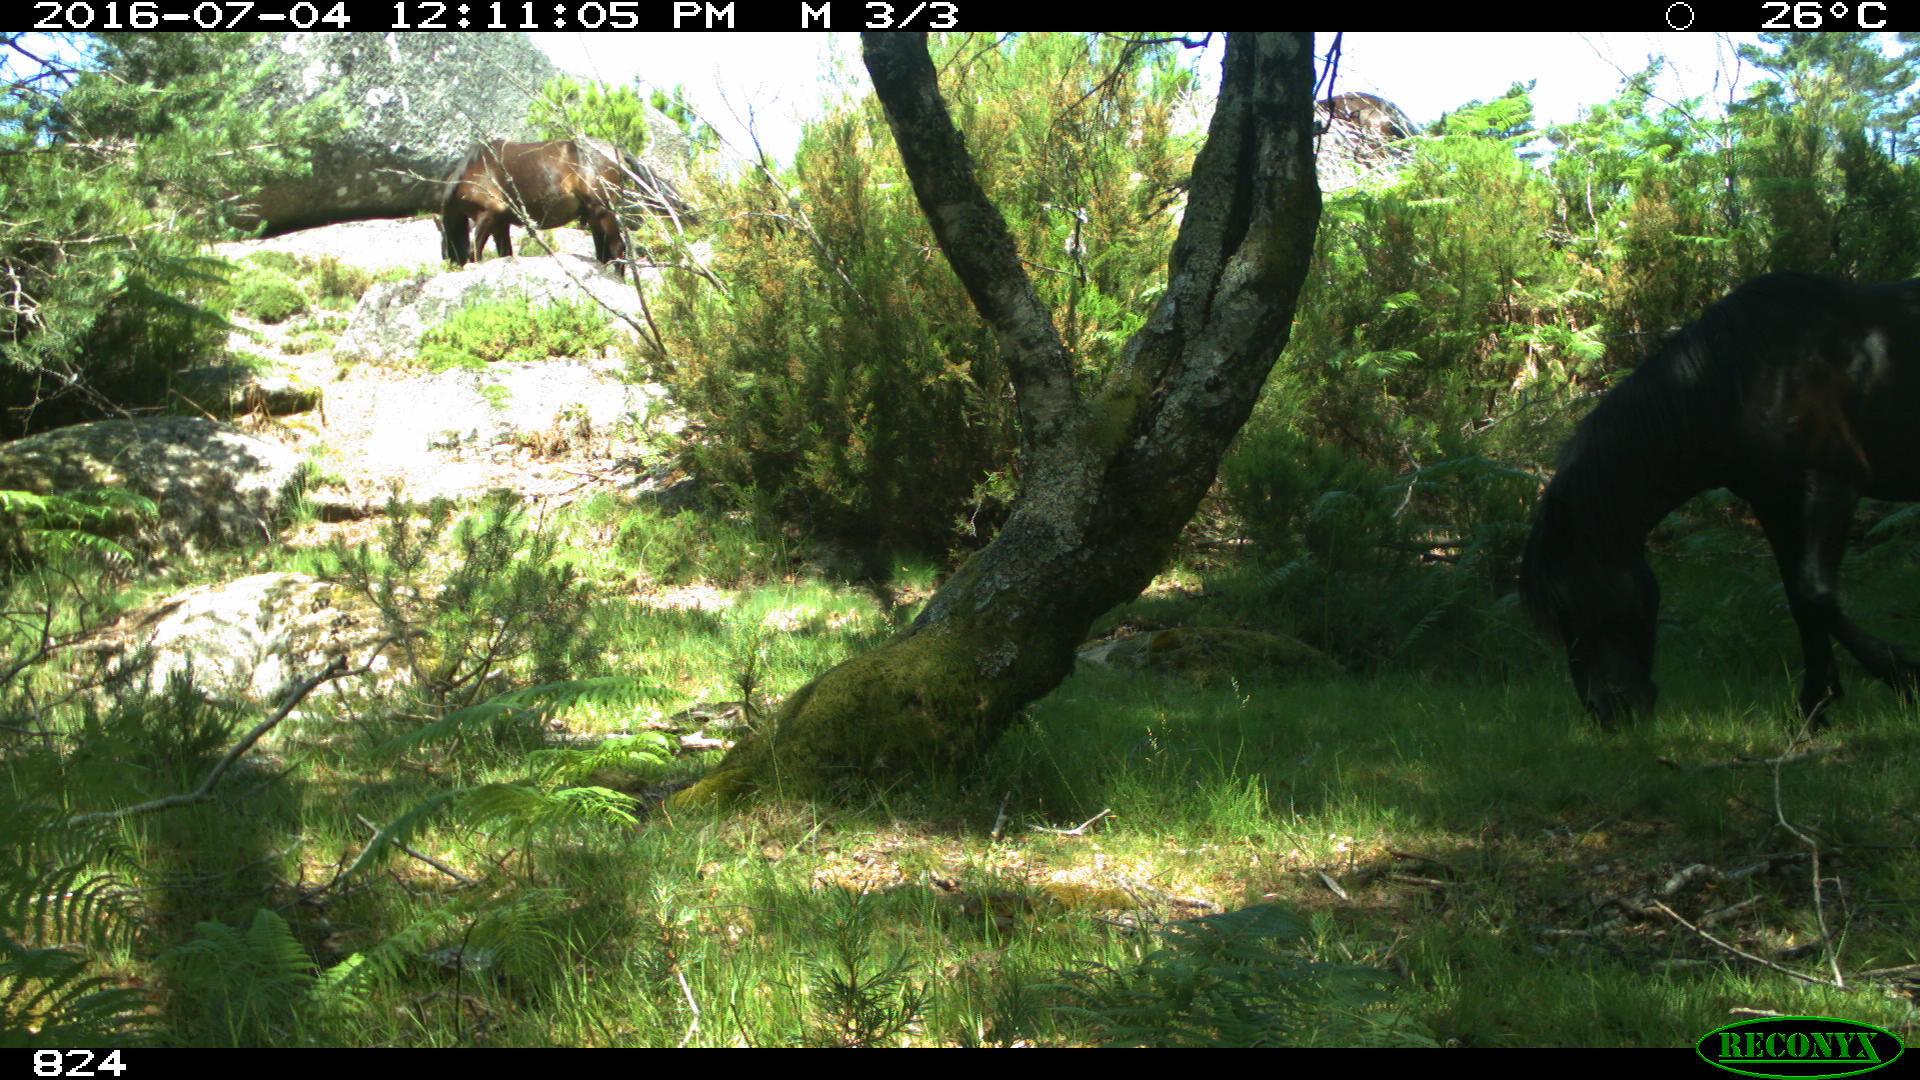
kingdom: Animalia
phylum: Chordata
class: Mammalia
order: Perissodactyla
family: Equidae
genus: Equus
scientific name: Equus caballus
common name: Horse
